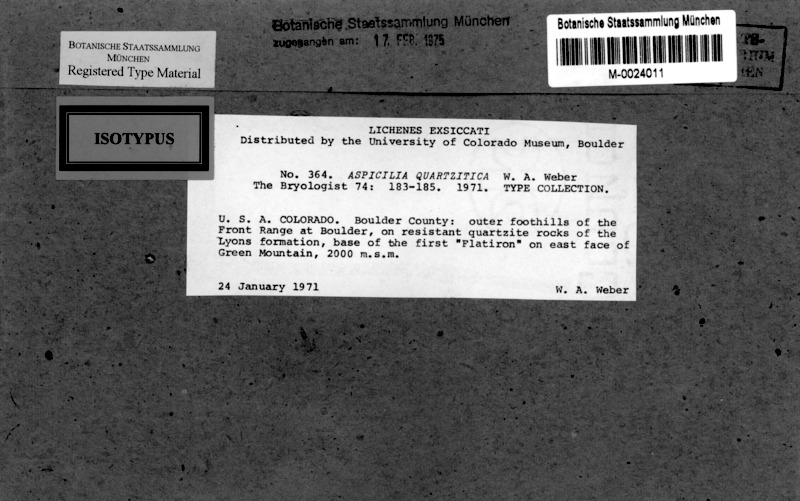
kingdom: Fungi
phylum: Ascomycota
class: Lecanoromycetes
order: Hymeneliales
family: Hymeneliaceae
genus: Aspicilia
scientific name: Aspicilia quartzitica
